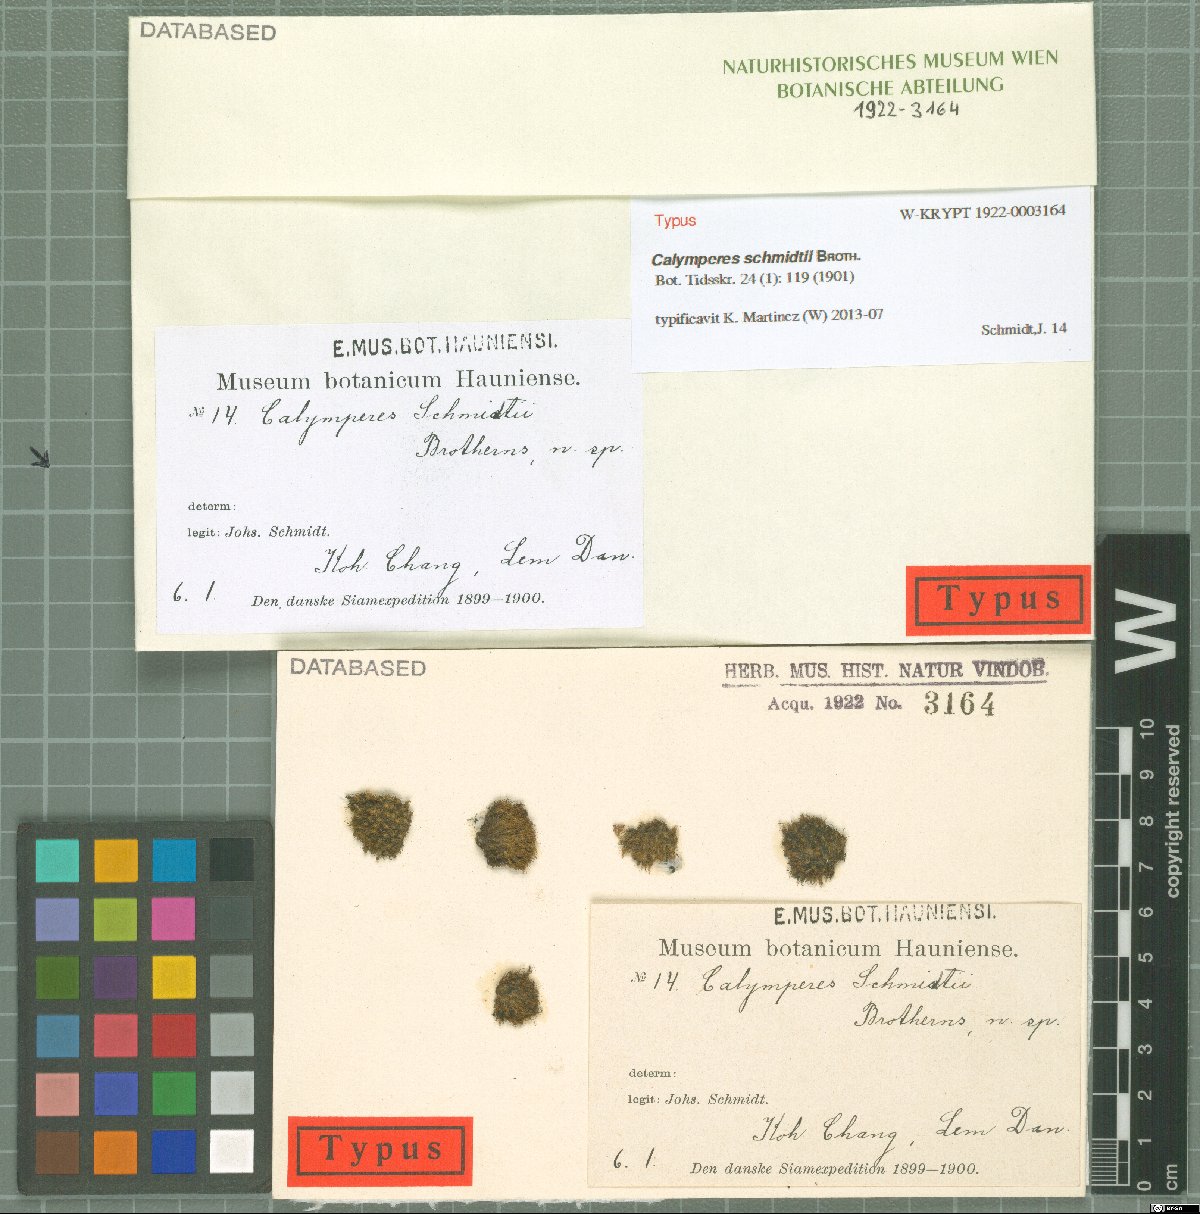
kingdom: Plantae
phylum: Bryophyta
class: Bryopsida
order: Dicranales
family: Calymperaceae
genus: Calymperes
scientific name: Calymperes schmidtii
